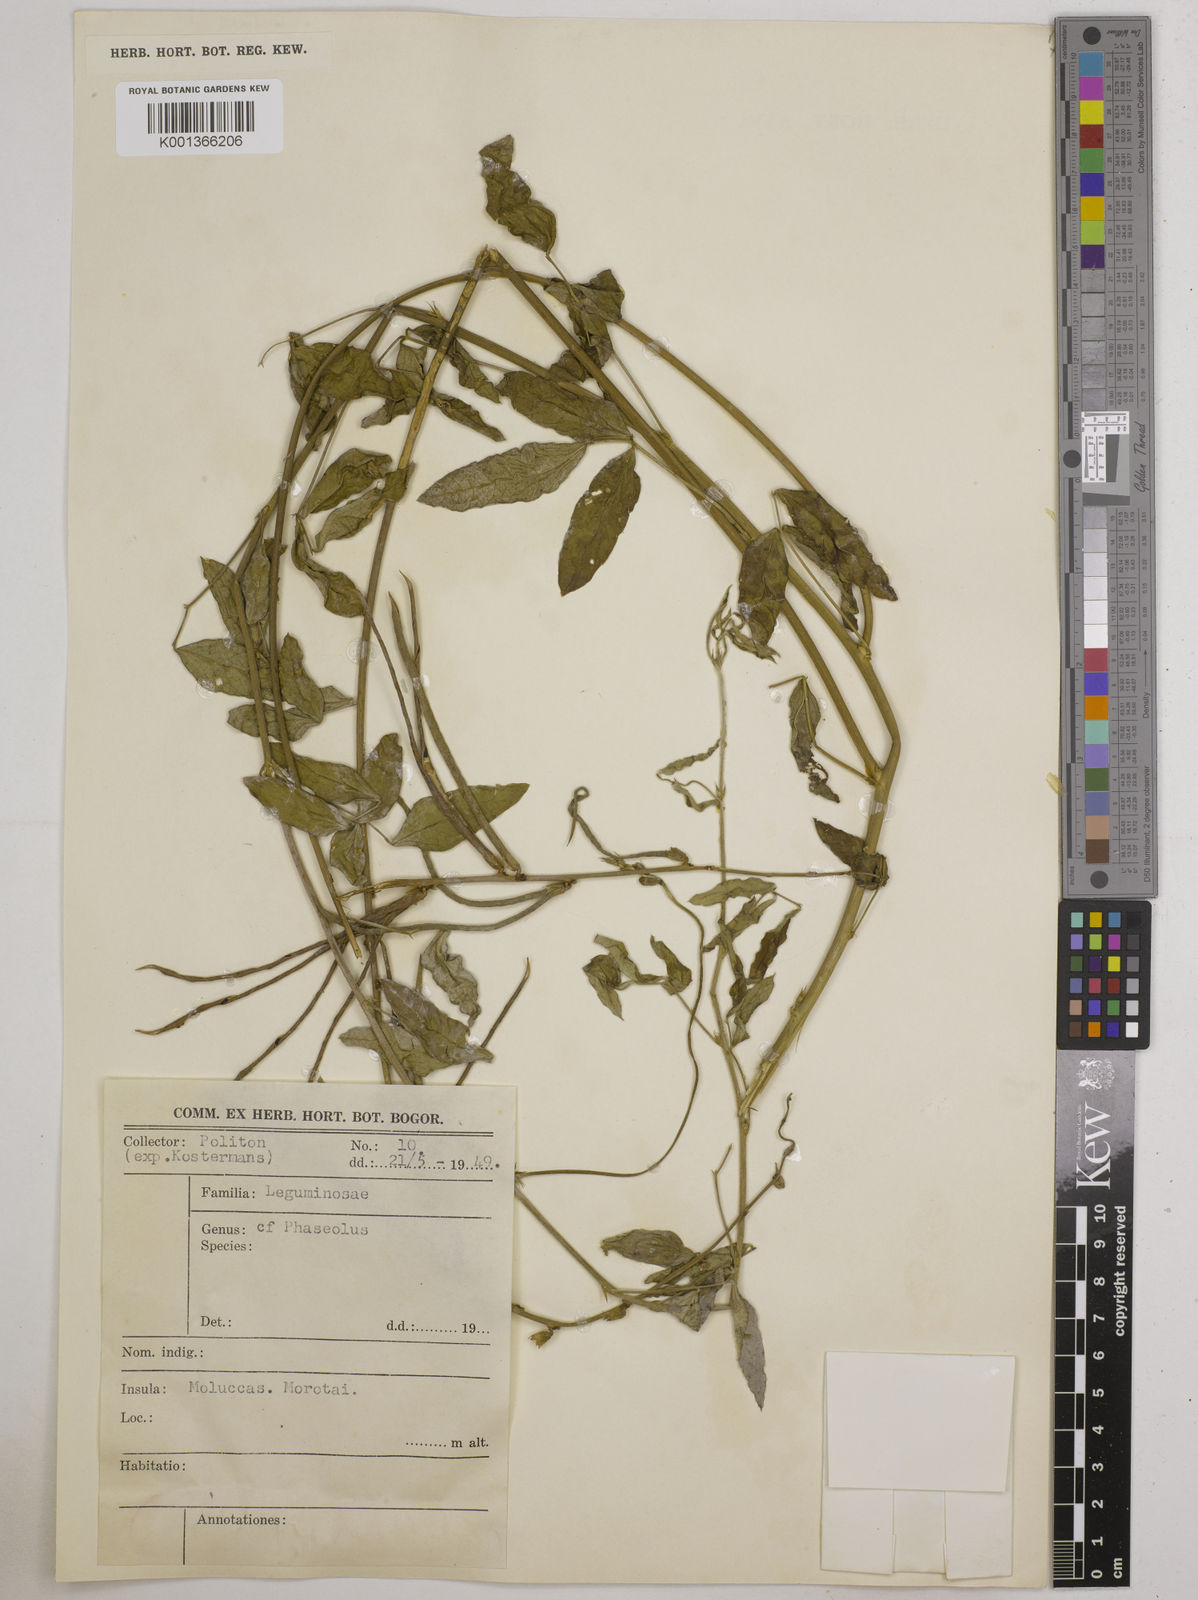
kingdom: Plantae
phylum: Tracheophyta
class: Magnoliopsida
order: Fabales
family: Fabaceae
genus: Macroptilium
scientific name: Macroptilium lathyroides
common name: Wild bushbean
